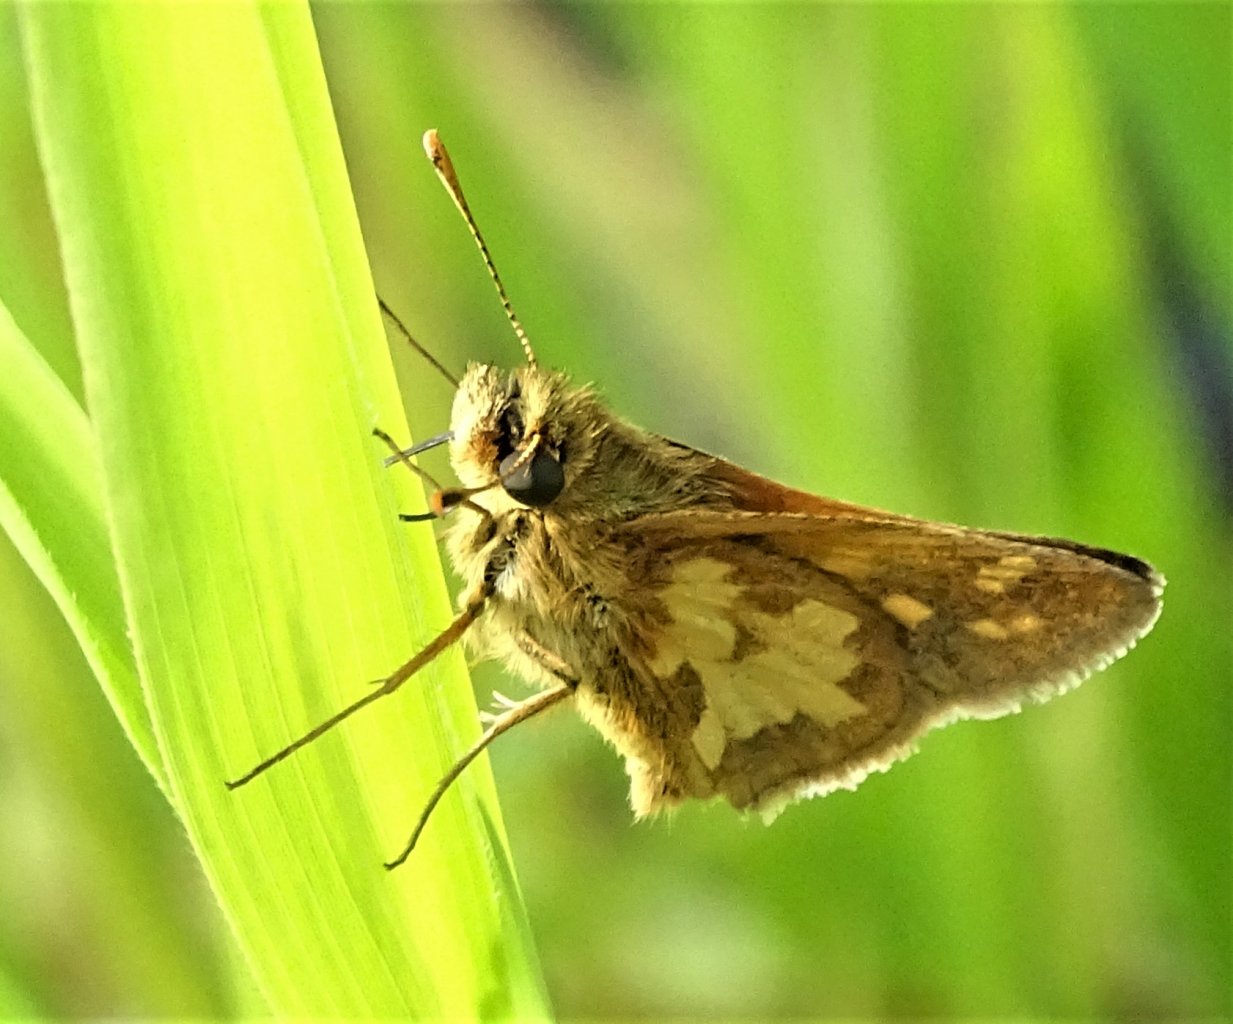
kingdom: Animalia
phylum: Arthropoda
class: Insecta
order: Lepidoptera
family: Hesperiidae
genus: Polites
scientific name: Polites coras
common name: Peck's Skipper
